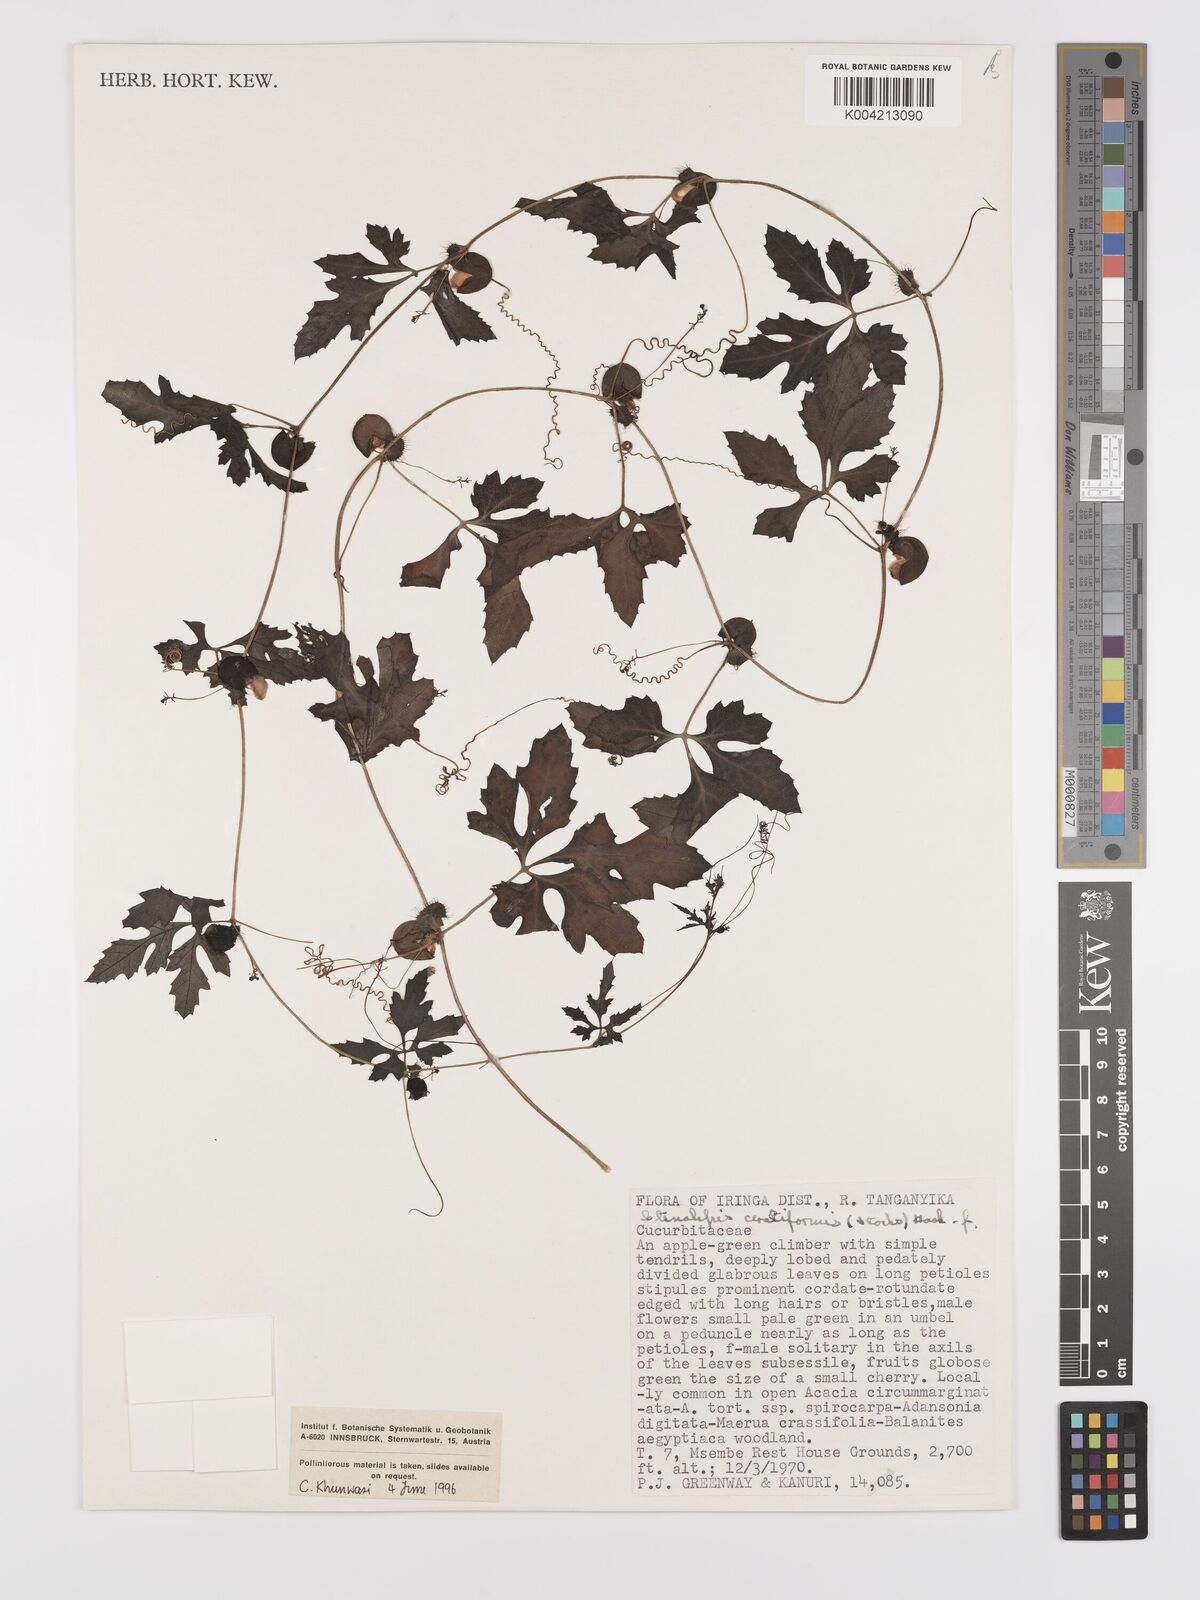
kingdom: Plantae
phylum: Tracheophyta
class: Magnoliopsida
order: Cucurbitales
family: Cucurbitaceae
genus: Blastania
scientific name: Blastania cerasiformis
